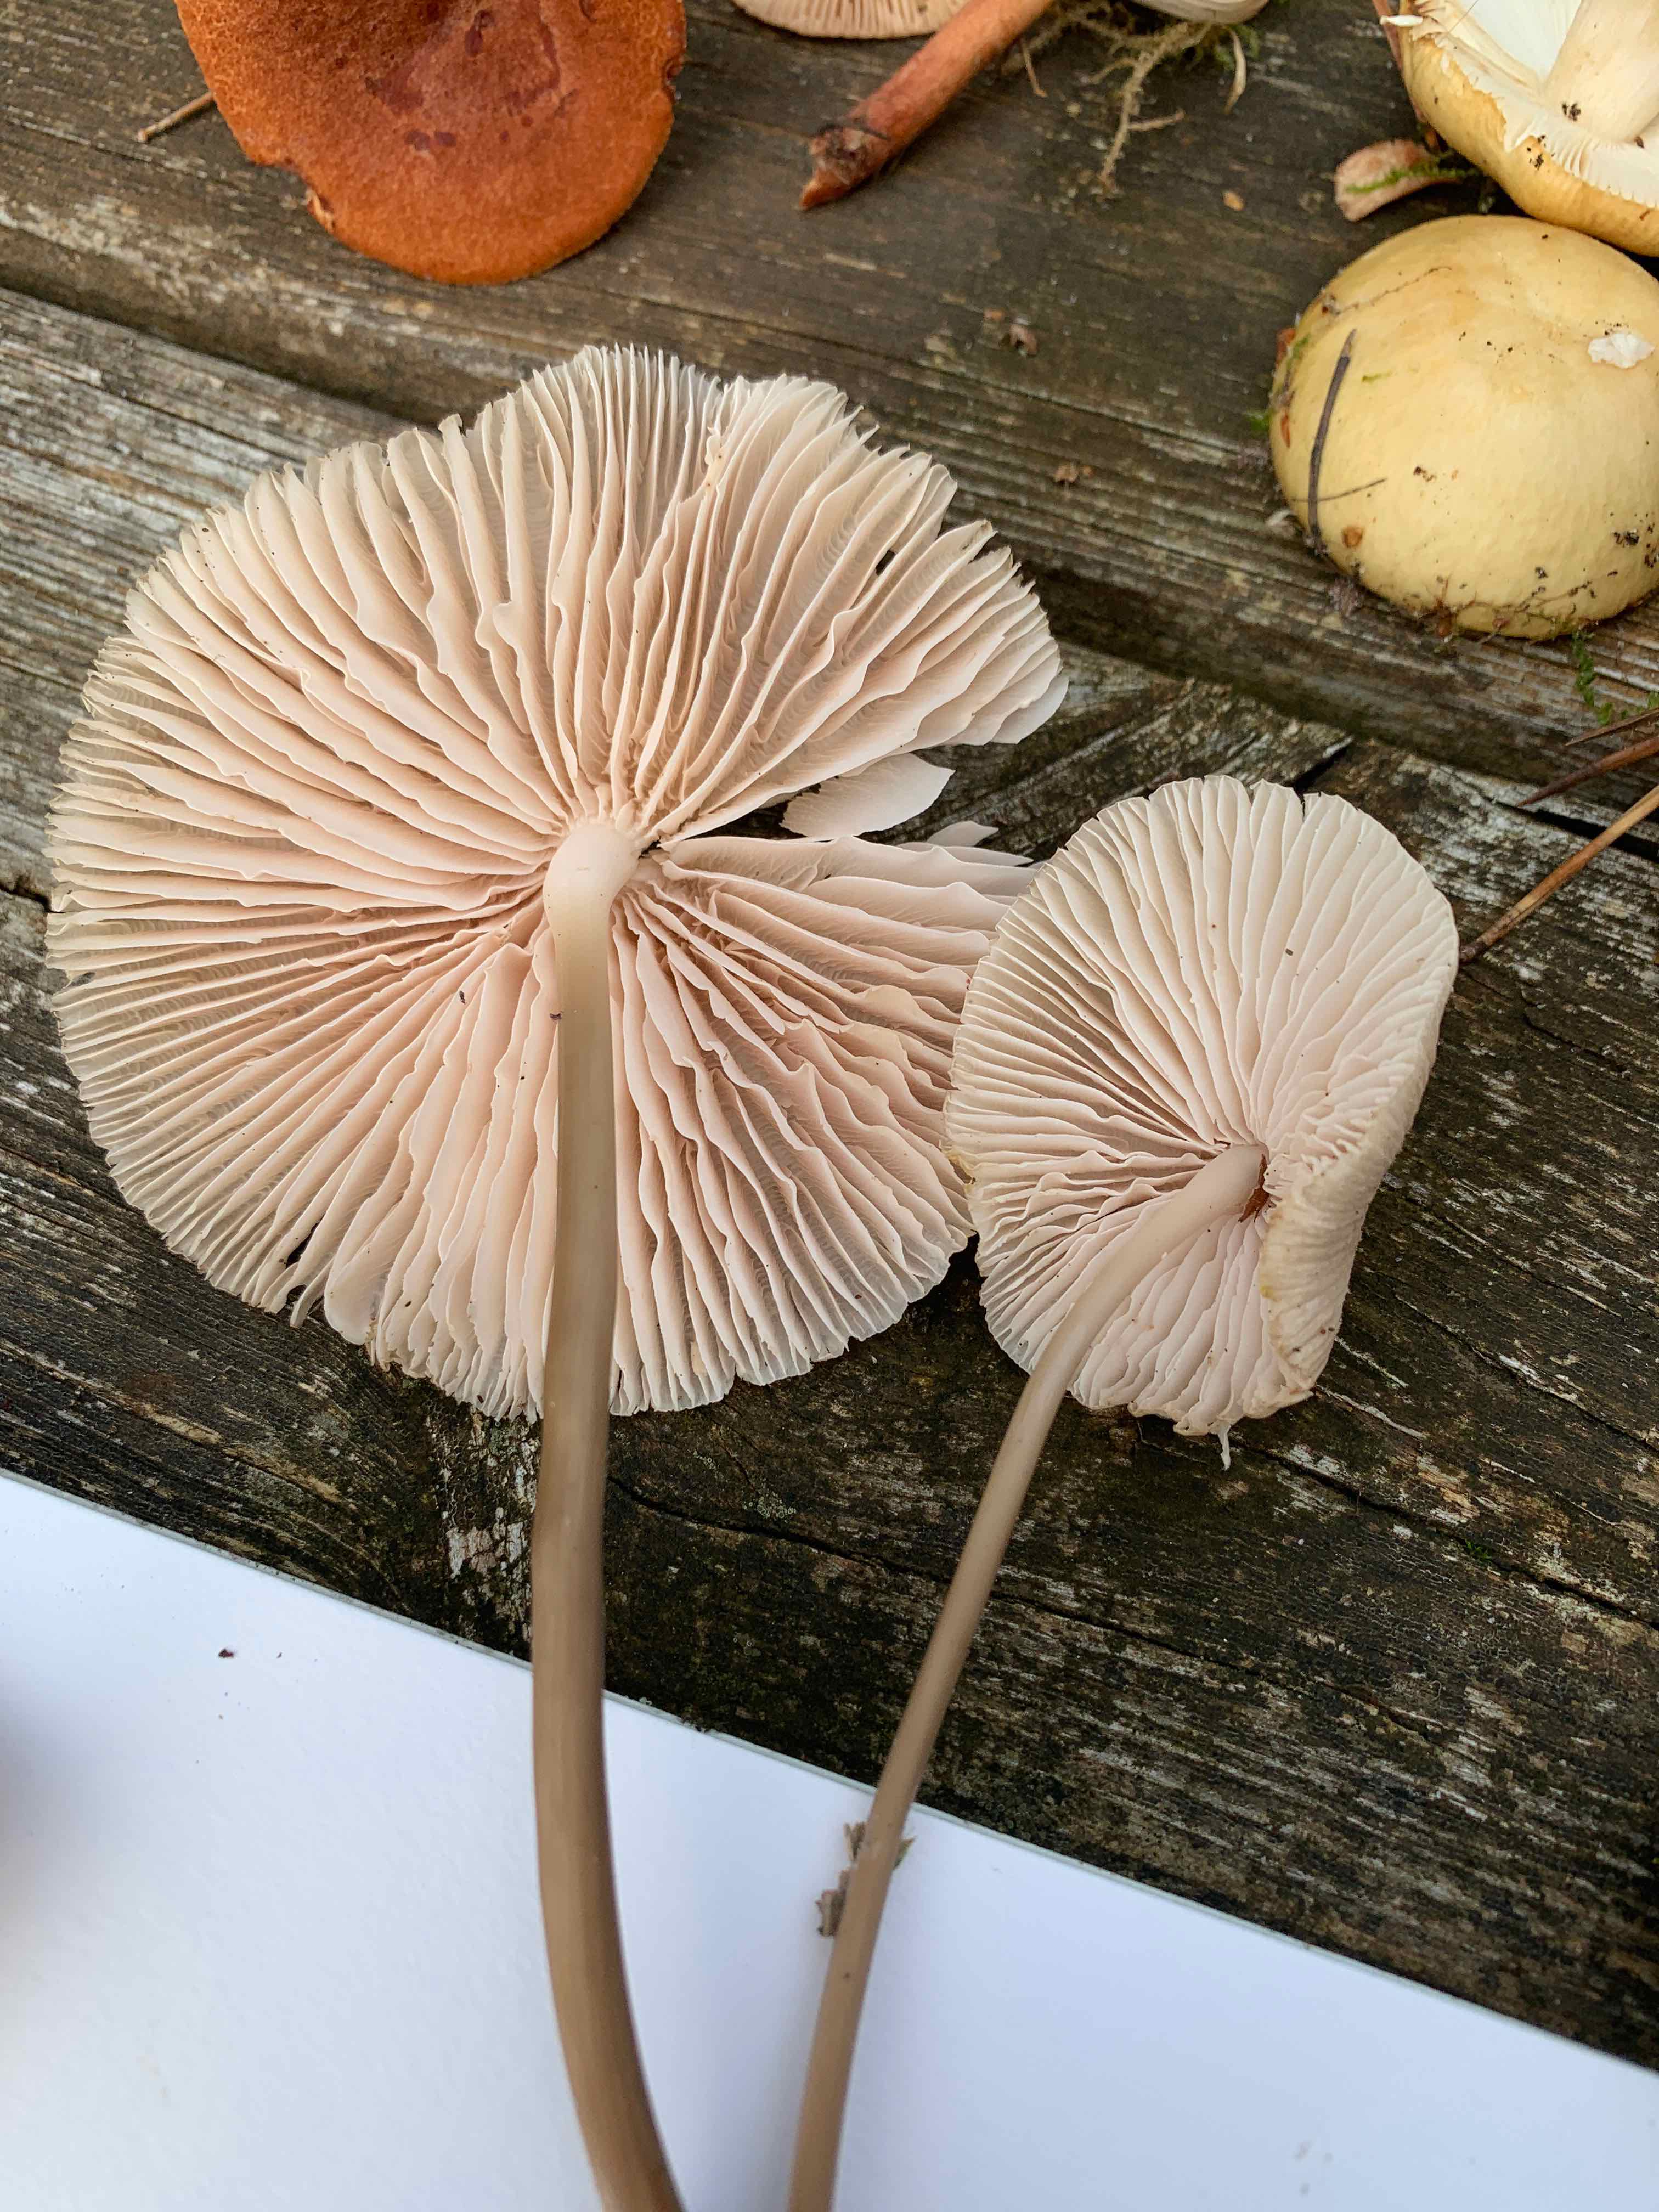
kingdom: Fungi
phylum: Basidiomycota
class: Agaricomycetes
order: Agaricales
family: Mycenaceae
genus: Mycena
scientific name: Mycena galericulata
